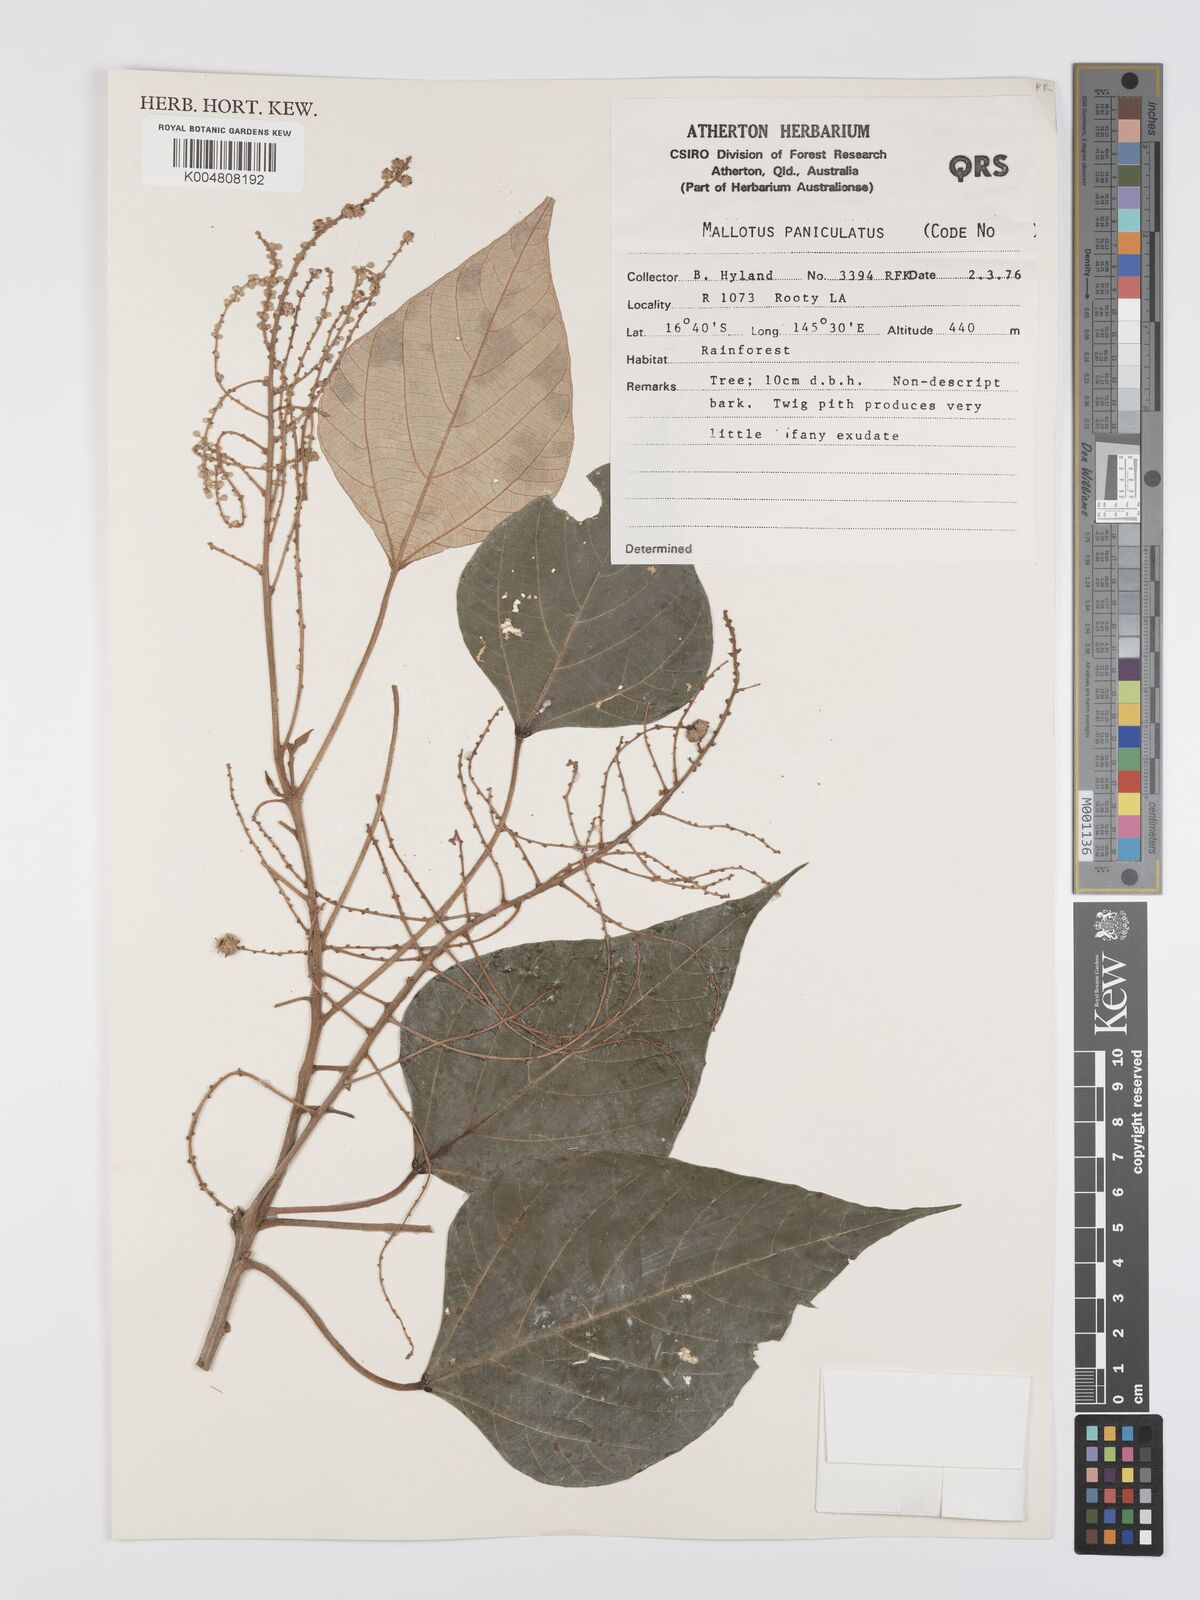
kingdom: Plantae
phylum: Tracheophyta
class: Magnoliopsida
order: Malpighiales
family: Euphorbiaceae
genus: Mallotus
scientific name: Mallotus paniculatus
